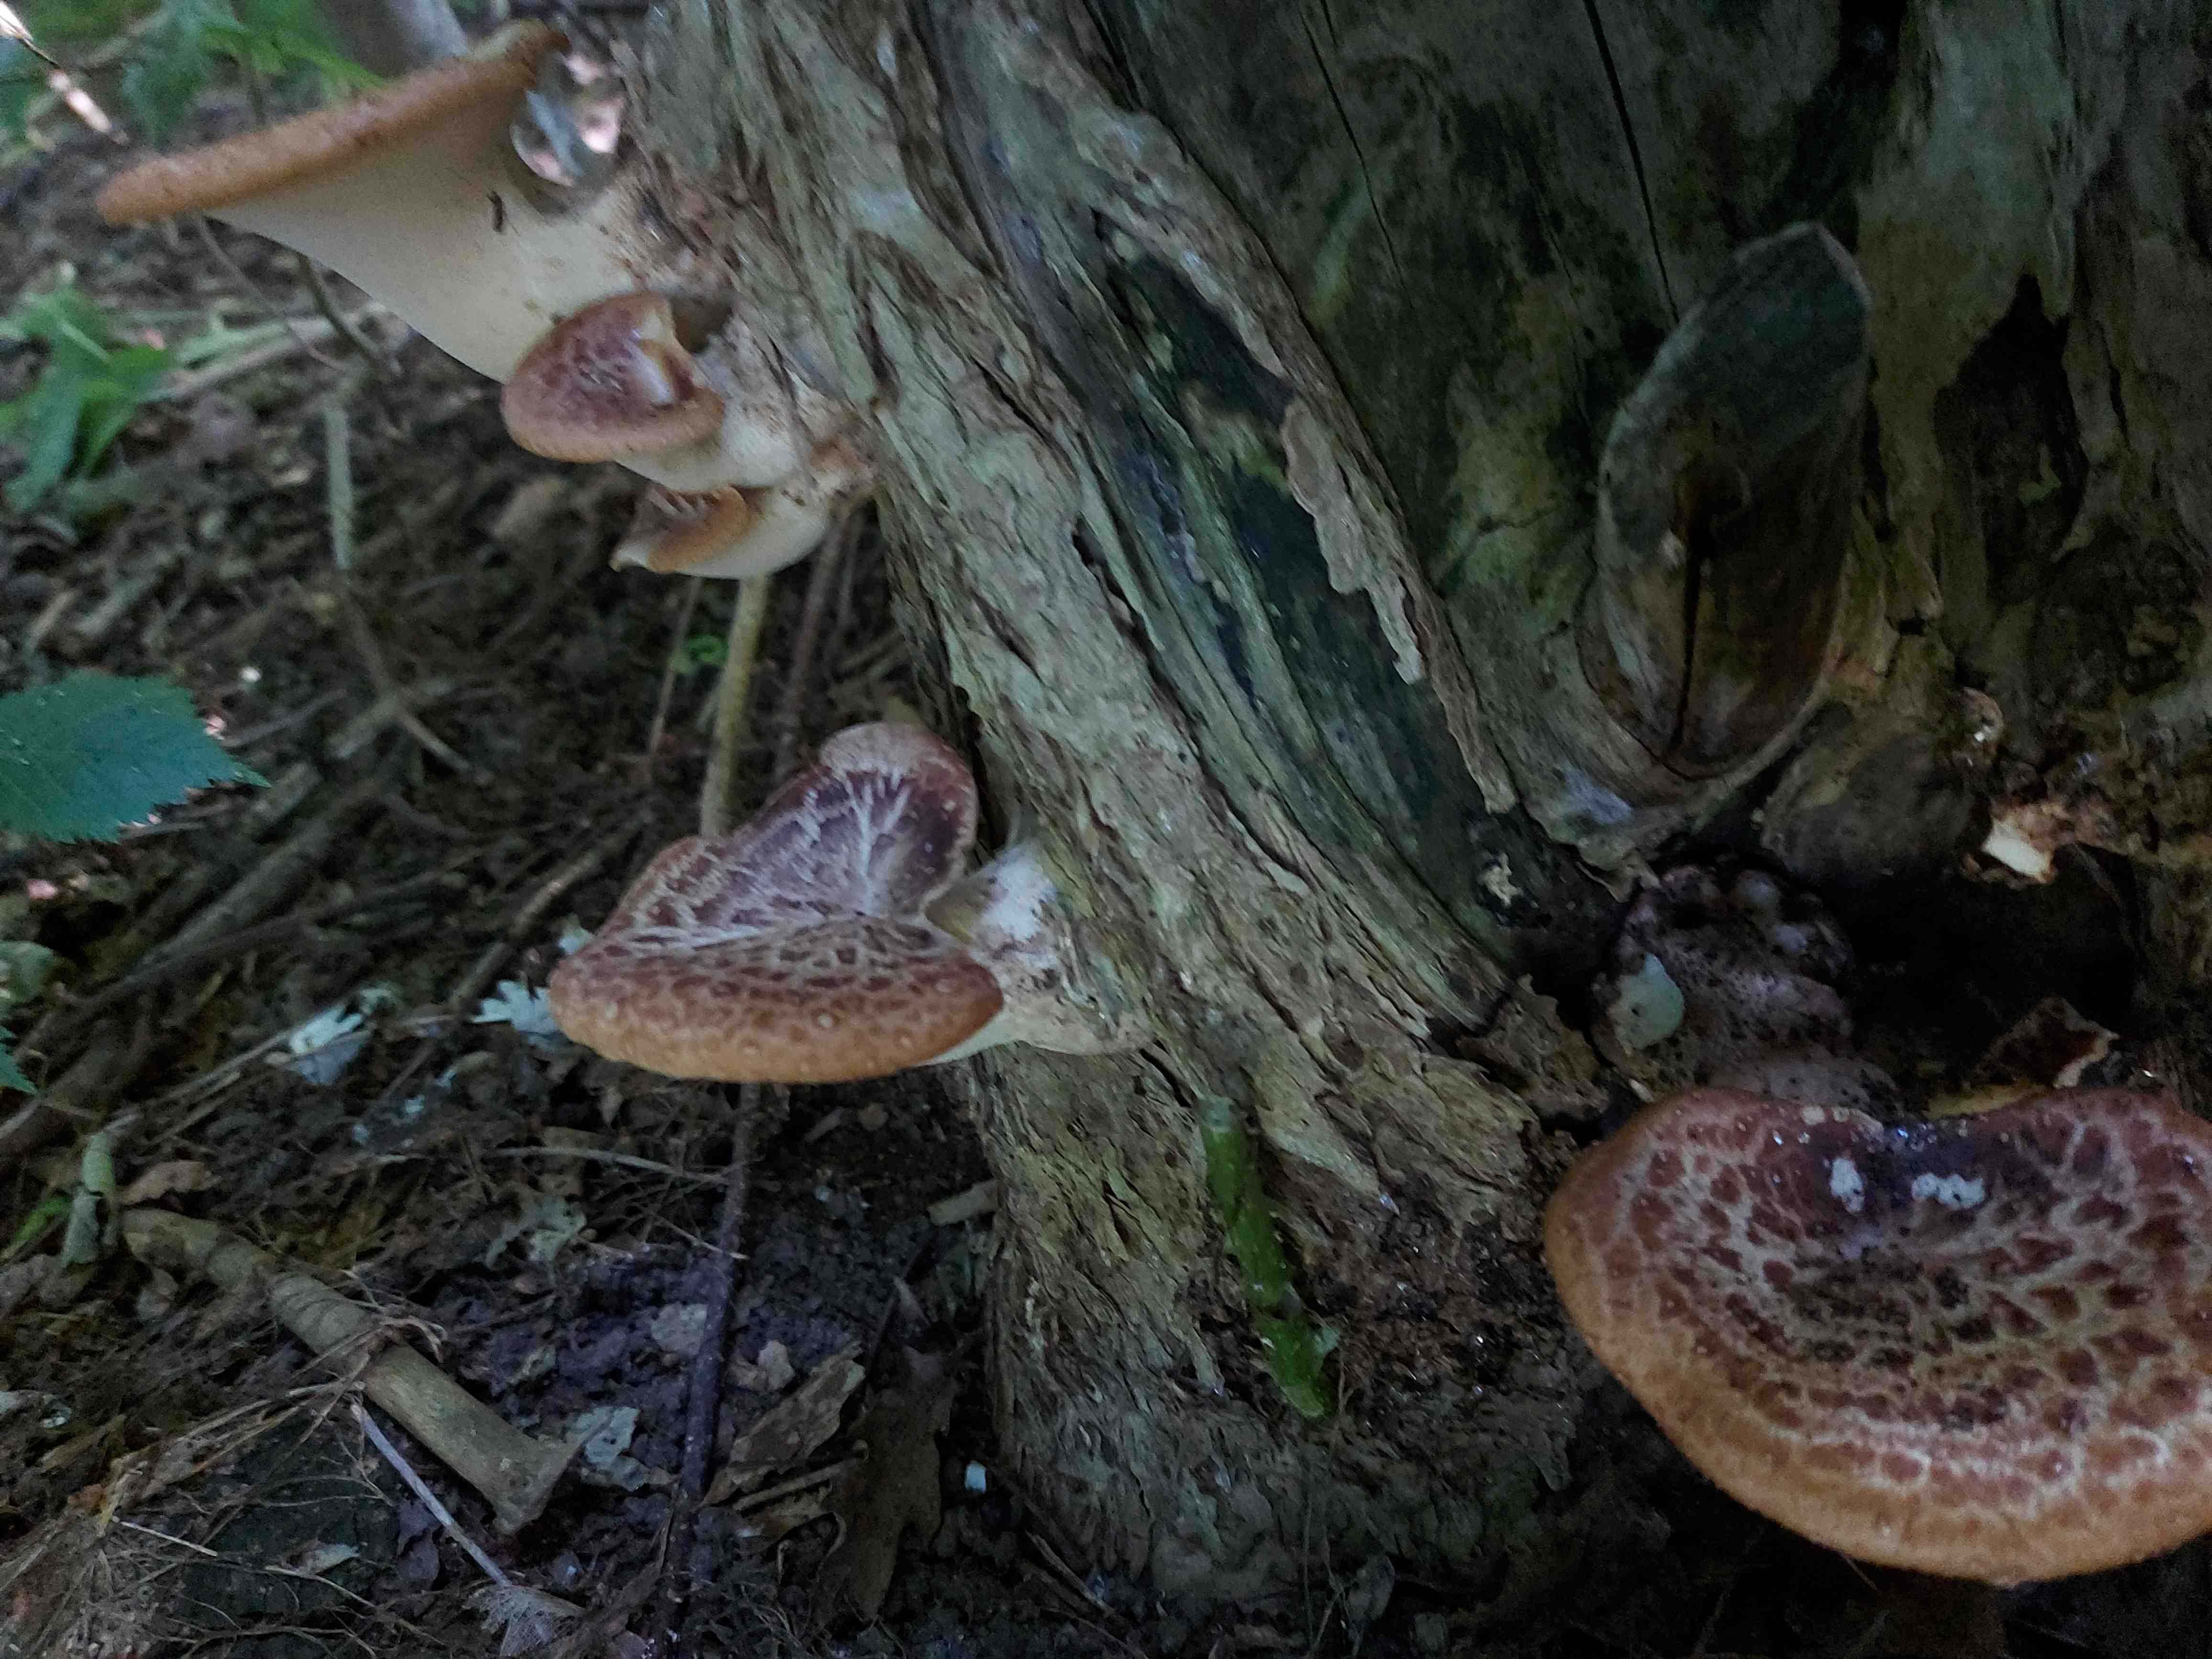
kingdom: Fungi
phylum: Basidiomycota
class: Agaricomycetes
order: Polyporales
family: Polyporaceae
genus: Cerioporus
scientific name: Cerioporus squamosus
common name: skællet stilkporesvamp
